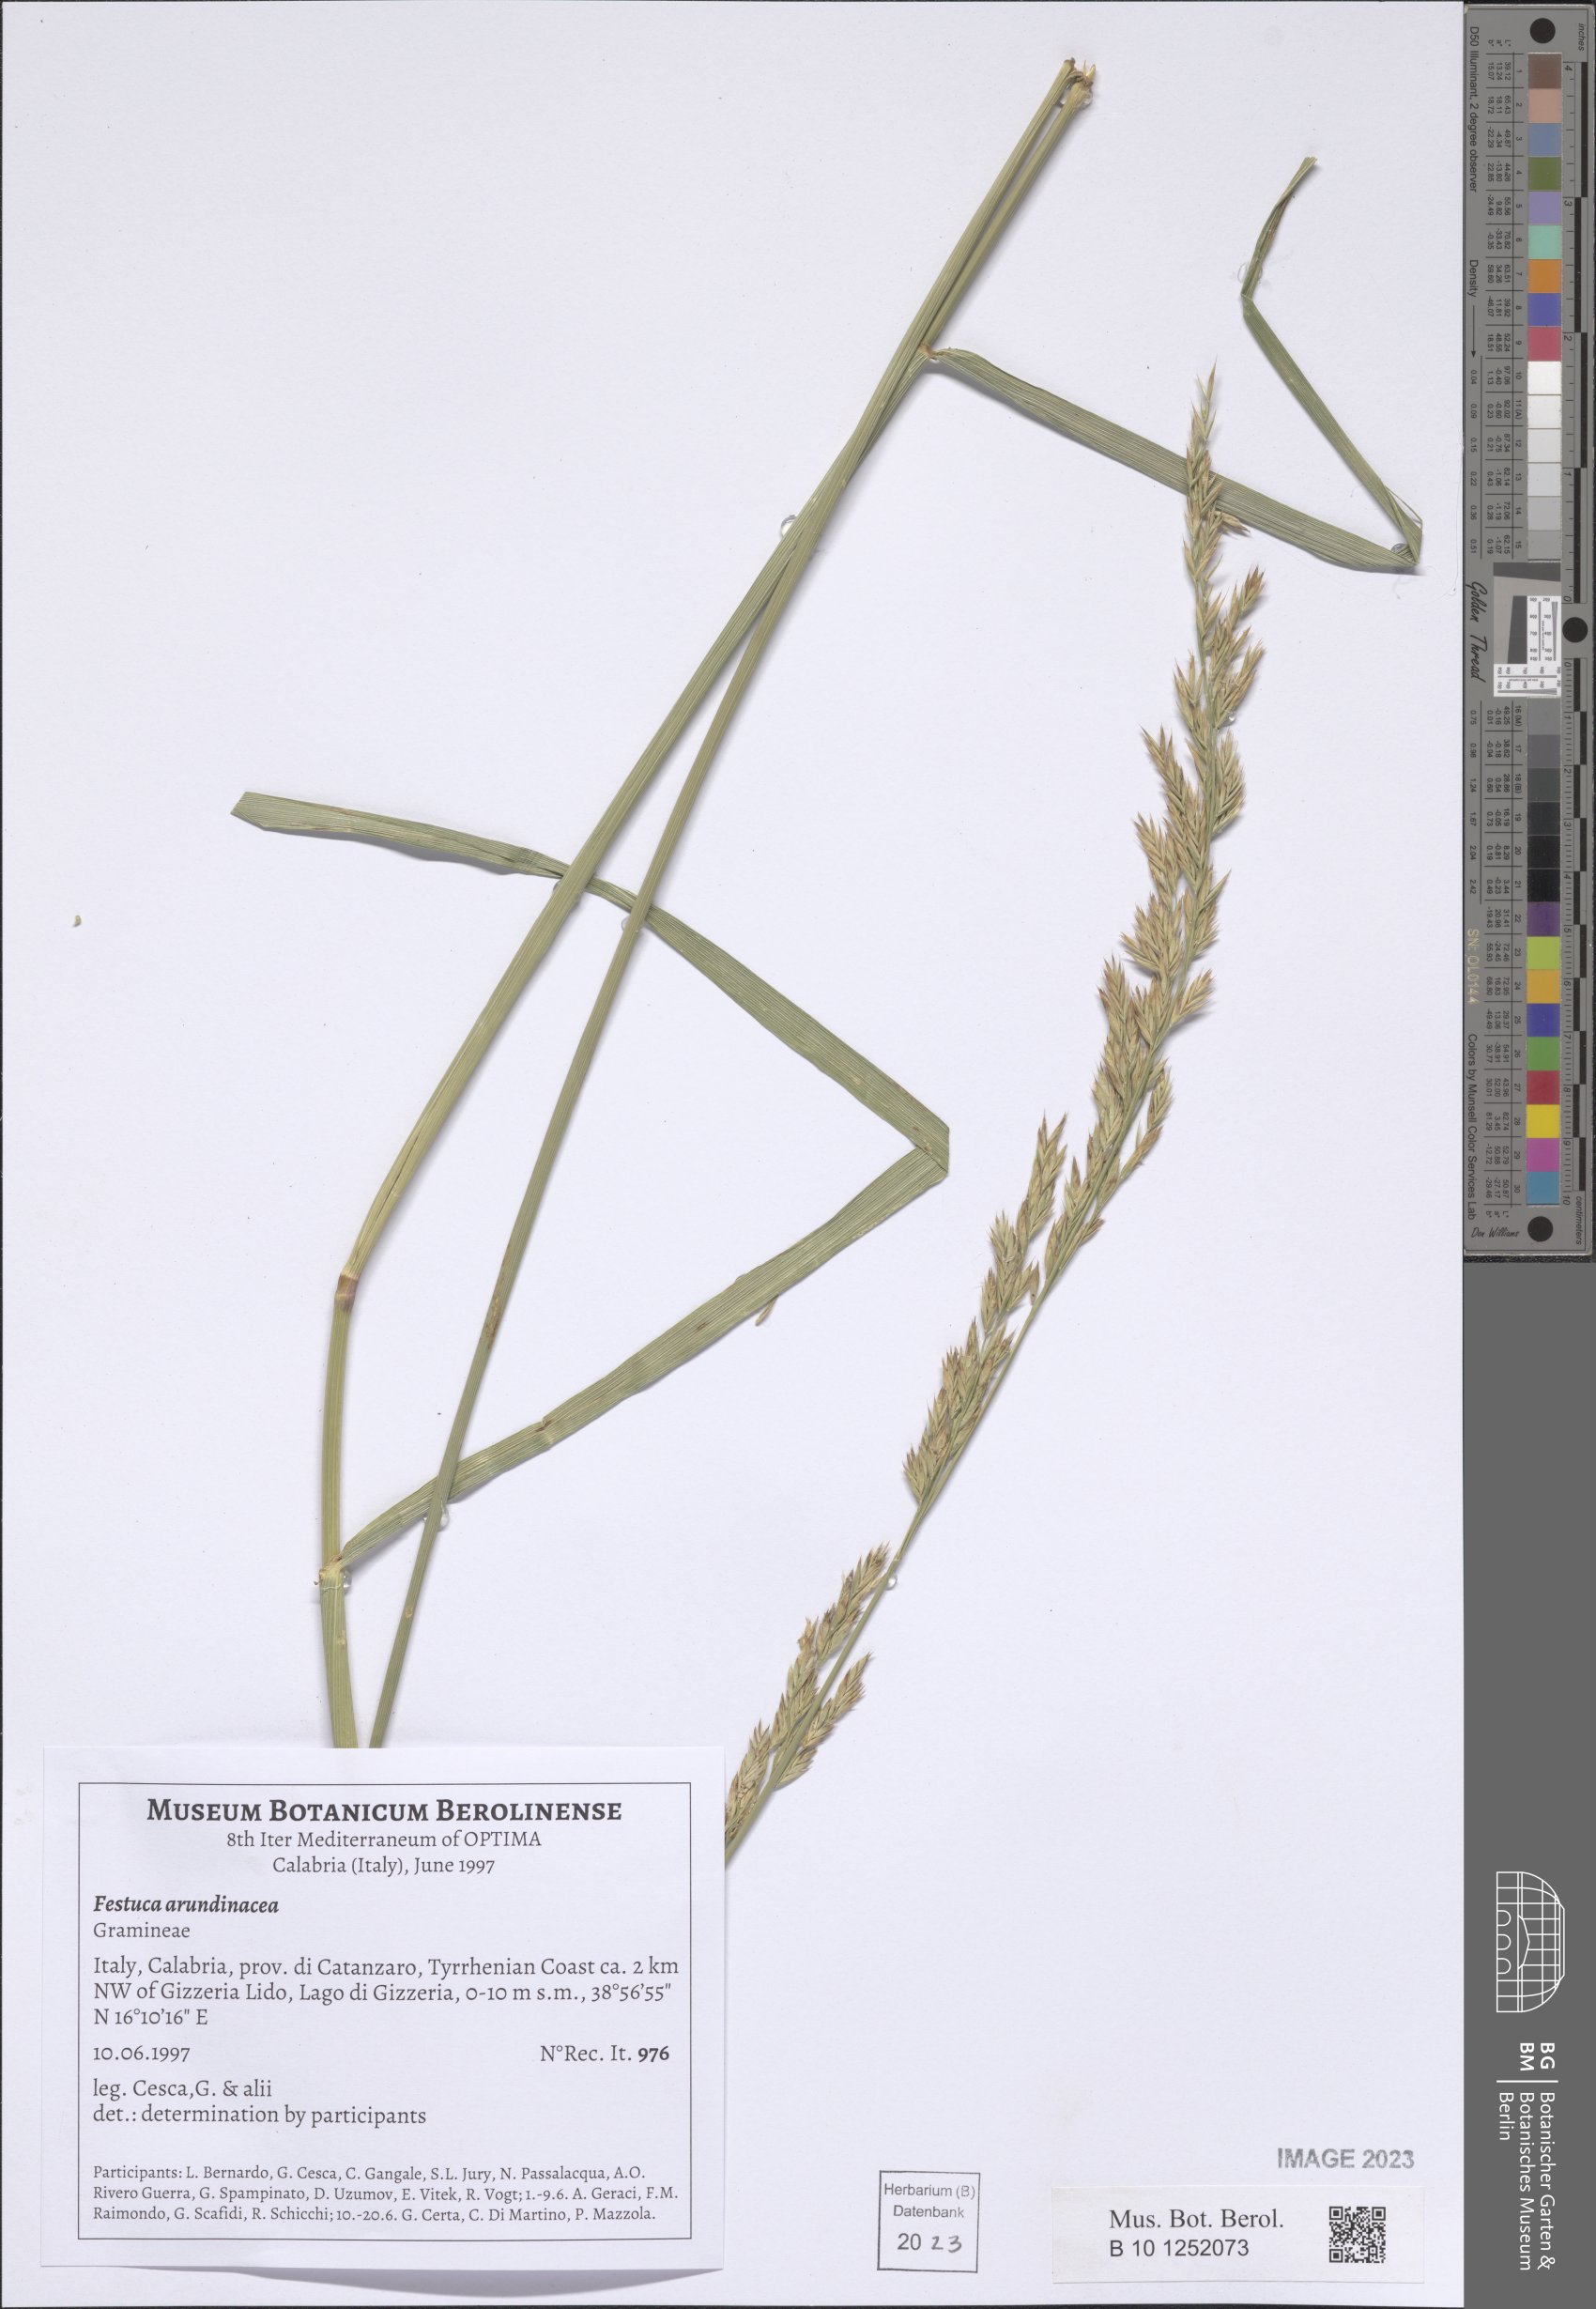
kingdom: Plantae
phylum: Tracheophyta
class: Liliopsida
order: Poales
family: Poaceae
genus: Lolium
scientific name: Lolium arundinaceum
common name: Reed fescue
